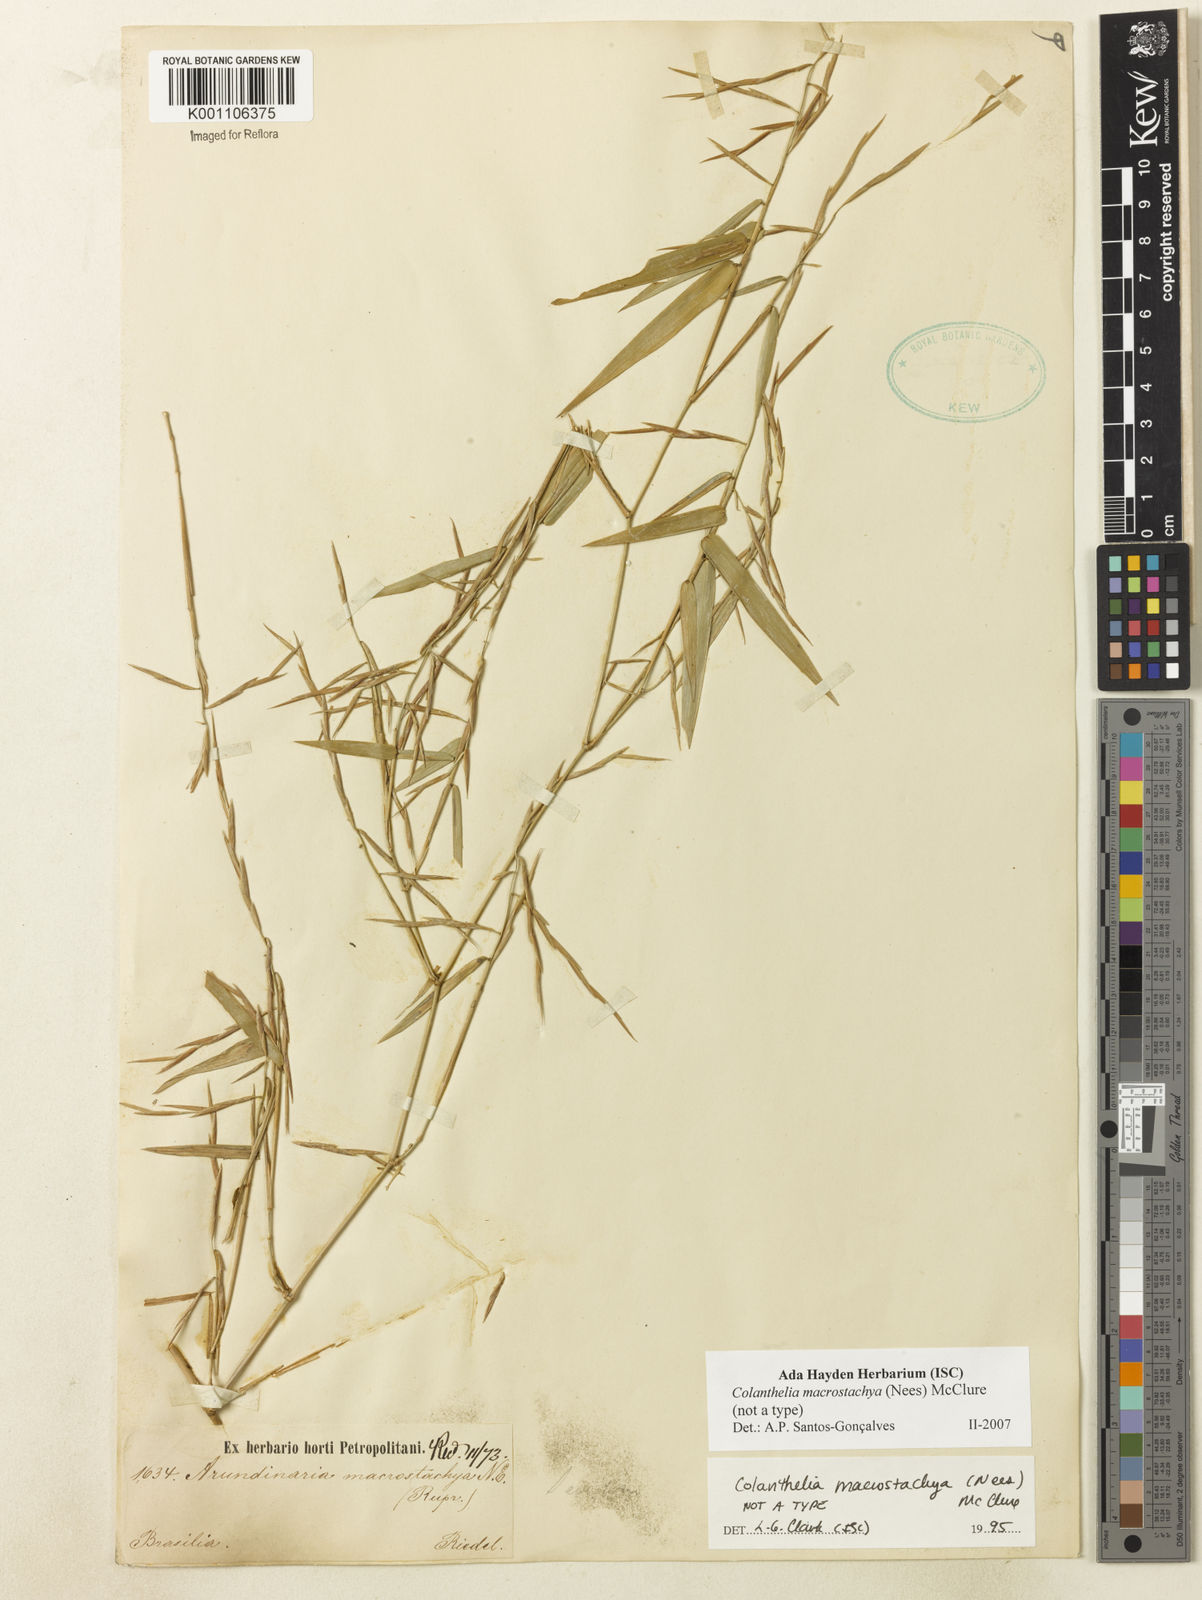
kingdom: Plantae
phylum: Tracheophyta
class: Liliopsida
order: Poales
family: Poaceae
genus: Colanthelia
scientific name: Colanthelia macrostachya
